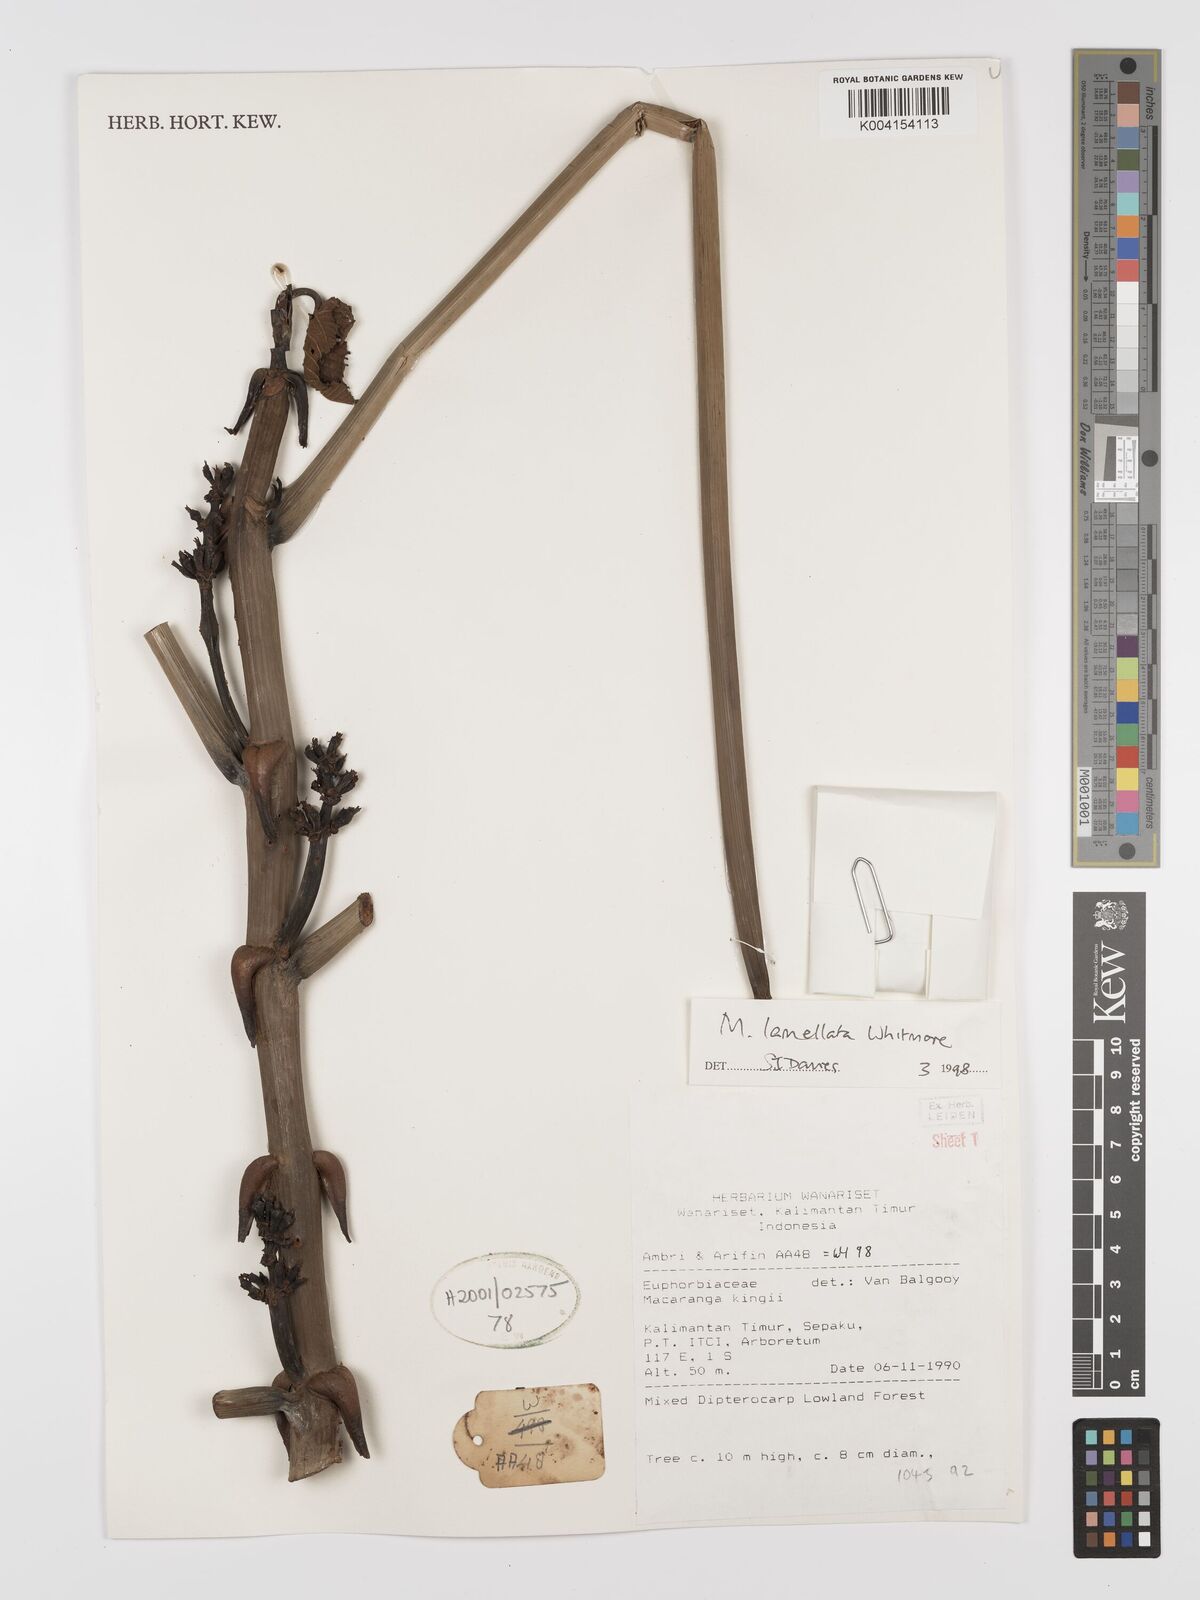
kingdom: Plantae
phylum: Tracheophyta
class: Magnoliopsida
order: Malpighiales
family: Euphorbiaceae
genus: Macaranga
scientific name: Macaranga lamellata
